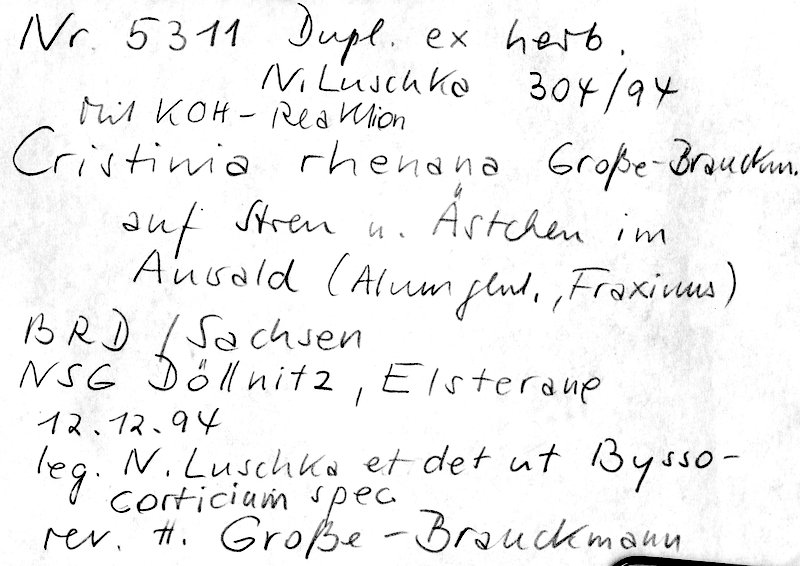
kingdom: Fungi
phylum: Basidiomycota
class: Agaricomycetes
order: Agaricales
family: Stephanosporaceae
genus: Cristinia
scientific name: Cristinia rhenana
